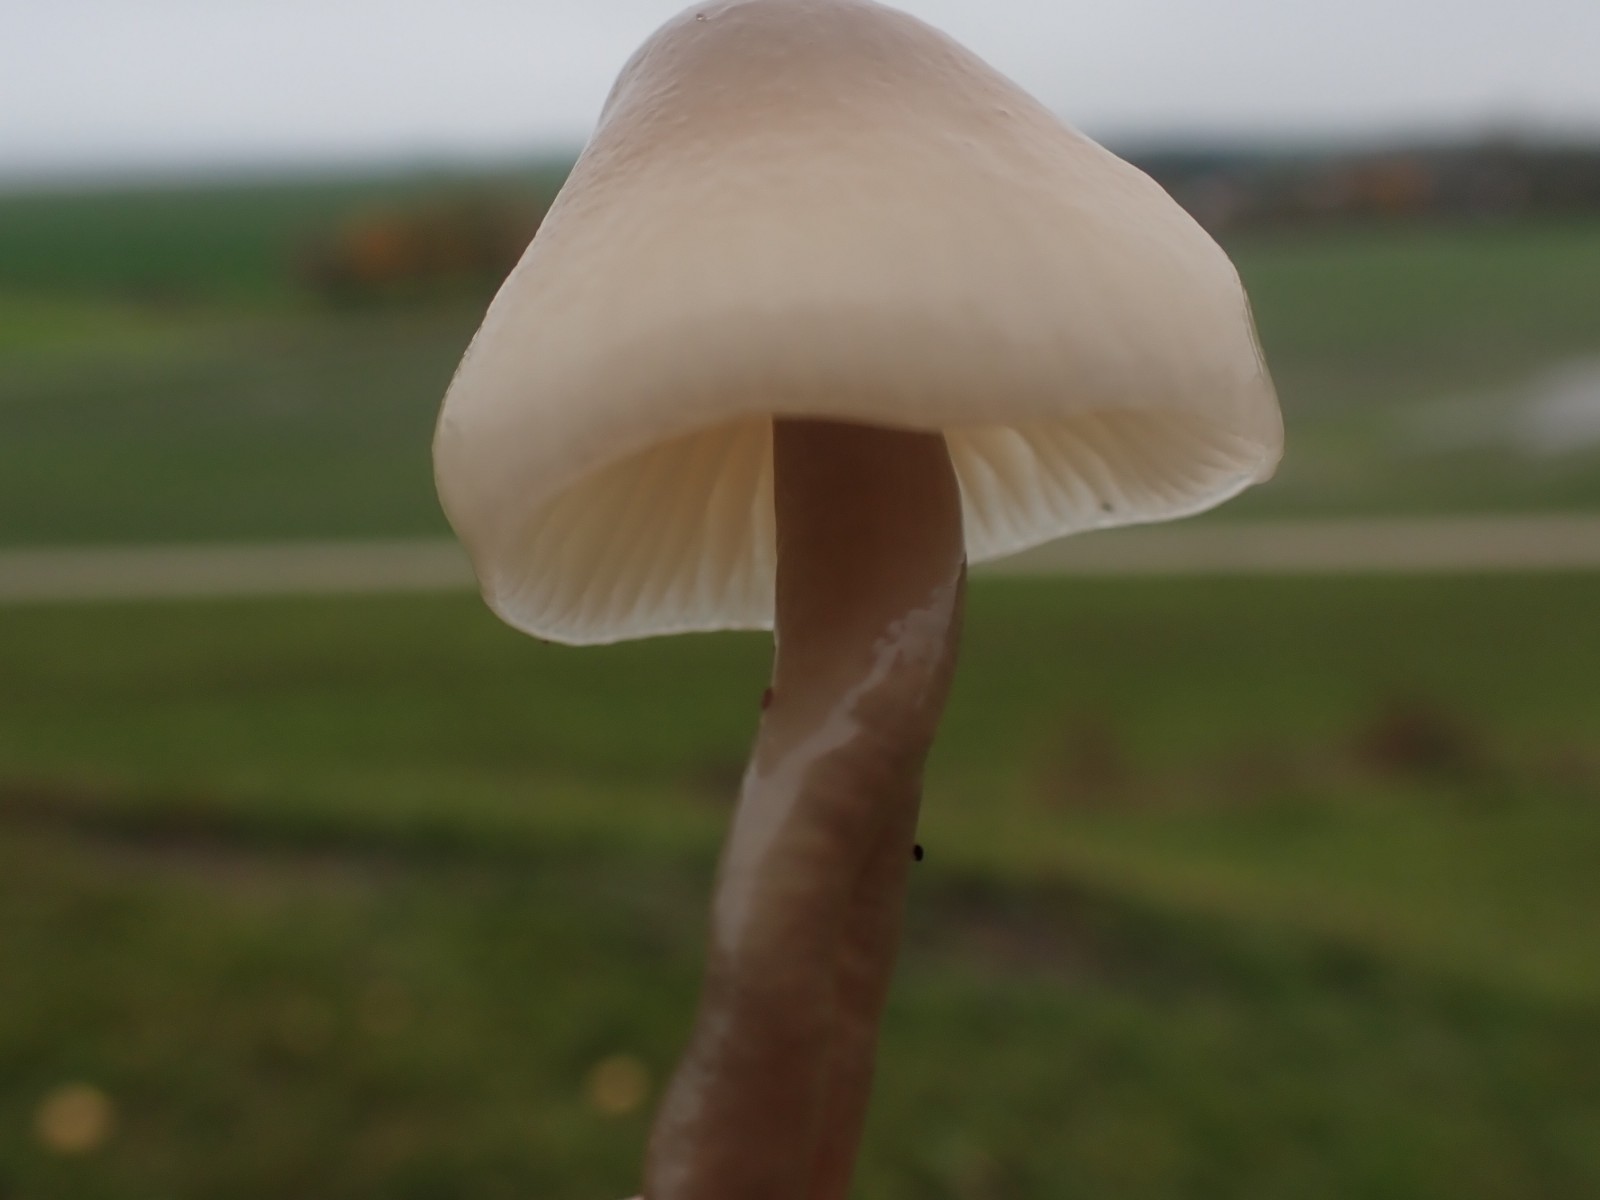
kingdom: Fungi
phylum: Basidiomycota
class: Agaricomycetes
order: Agaricales
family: Hygrophoraceae
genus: Gliophorus
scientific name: Gliophorus irrigatus
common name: slimet vokshat
